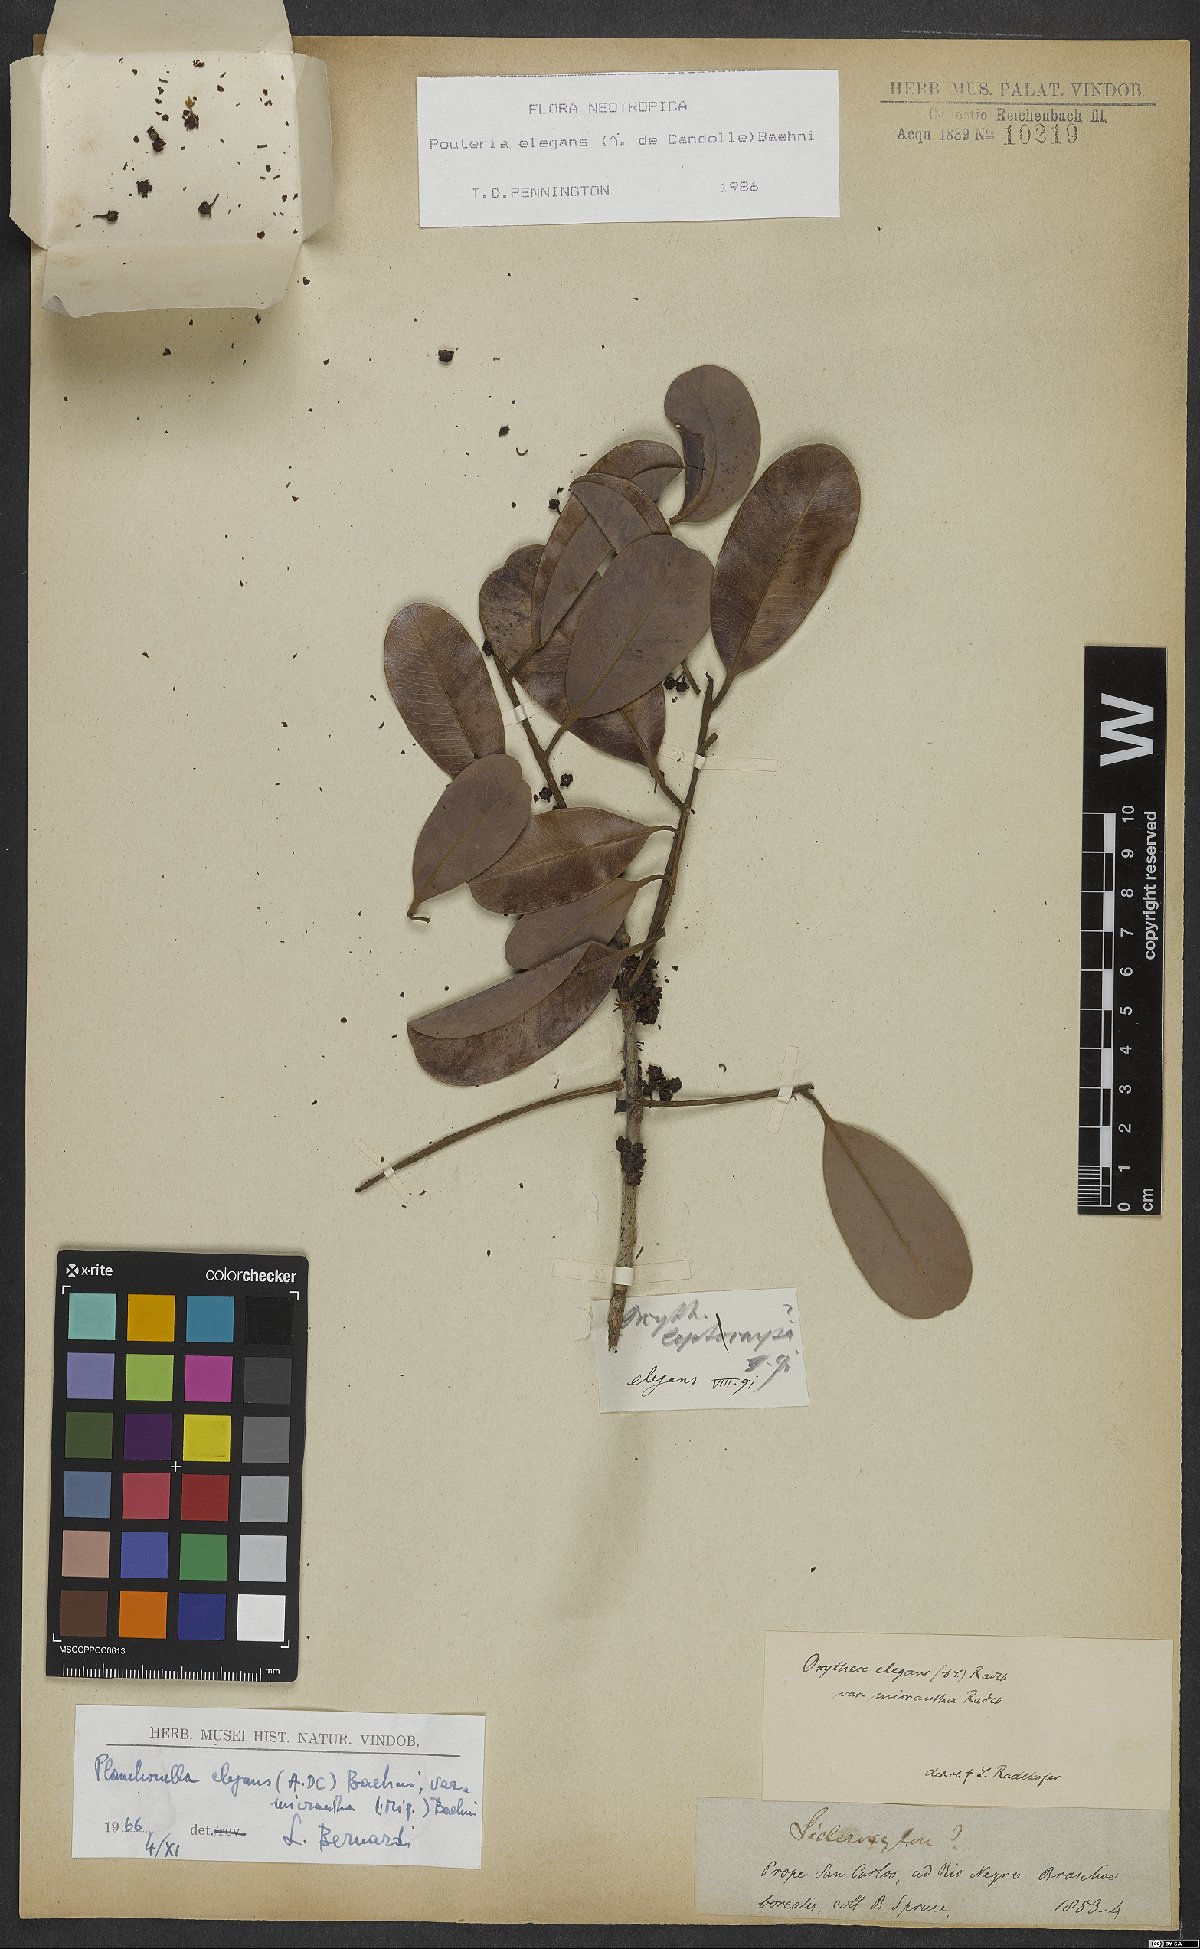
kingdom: Plantae
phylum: Tracheophyta
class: Magnoliopsida
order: Ericales
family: Sapotaceae
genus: Pouteria
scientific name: Pouteria elegans
